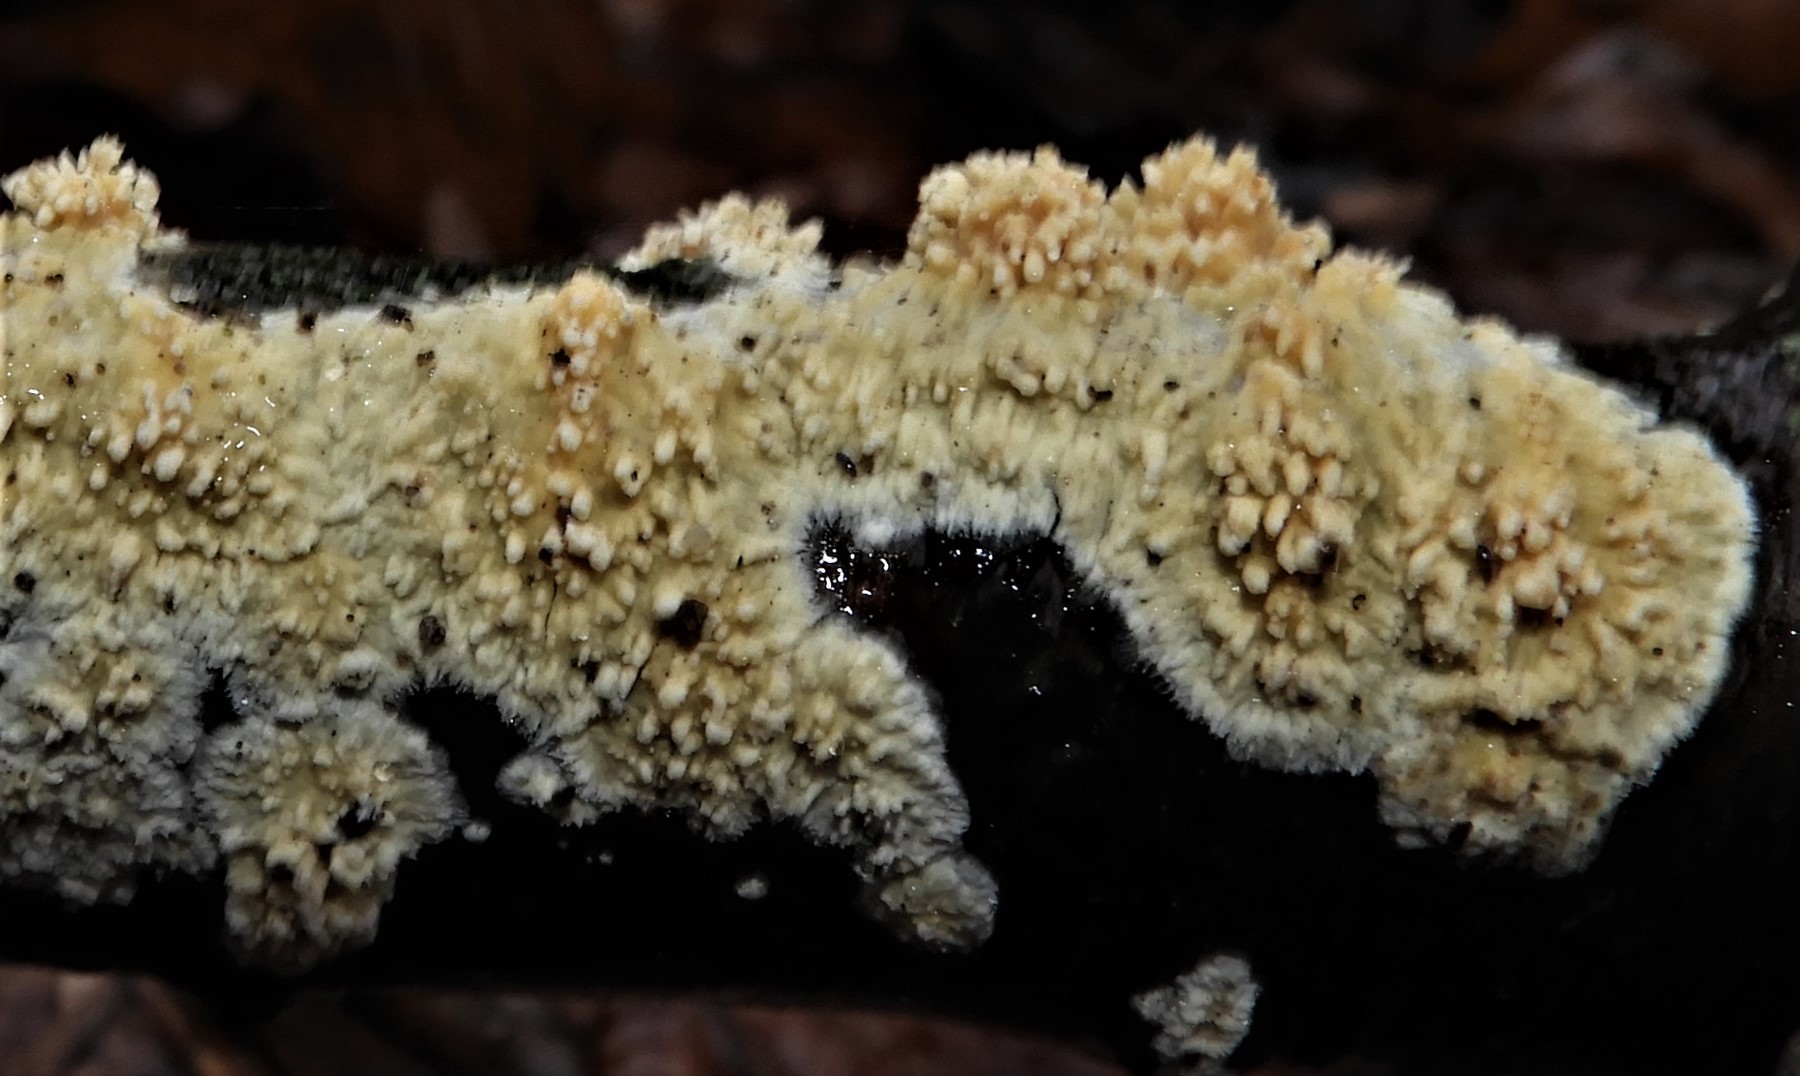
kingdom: Fungi
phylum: Basidiomycota
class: Agaricomycetes
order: Hymenochaetales
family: Schizoporaceae
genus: Xylodon
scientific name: Xylodon radula
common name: grovtandet kalkskind
